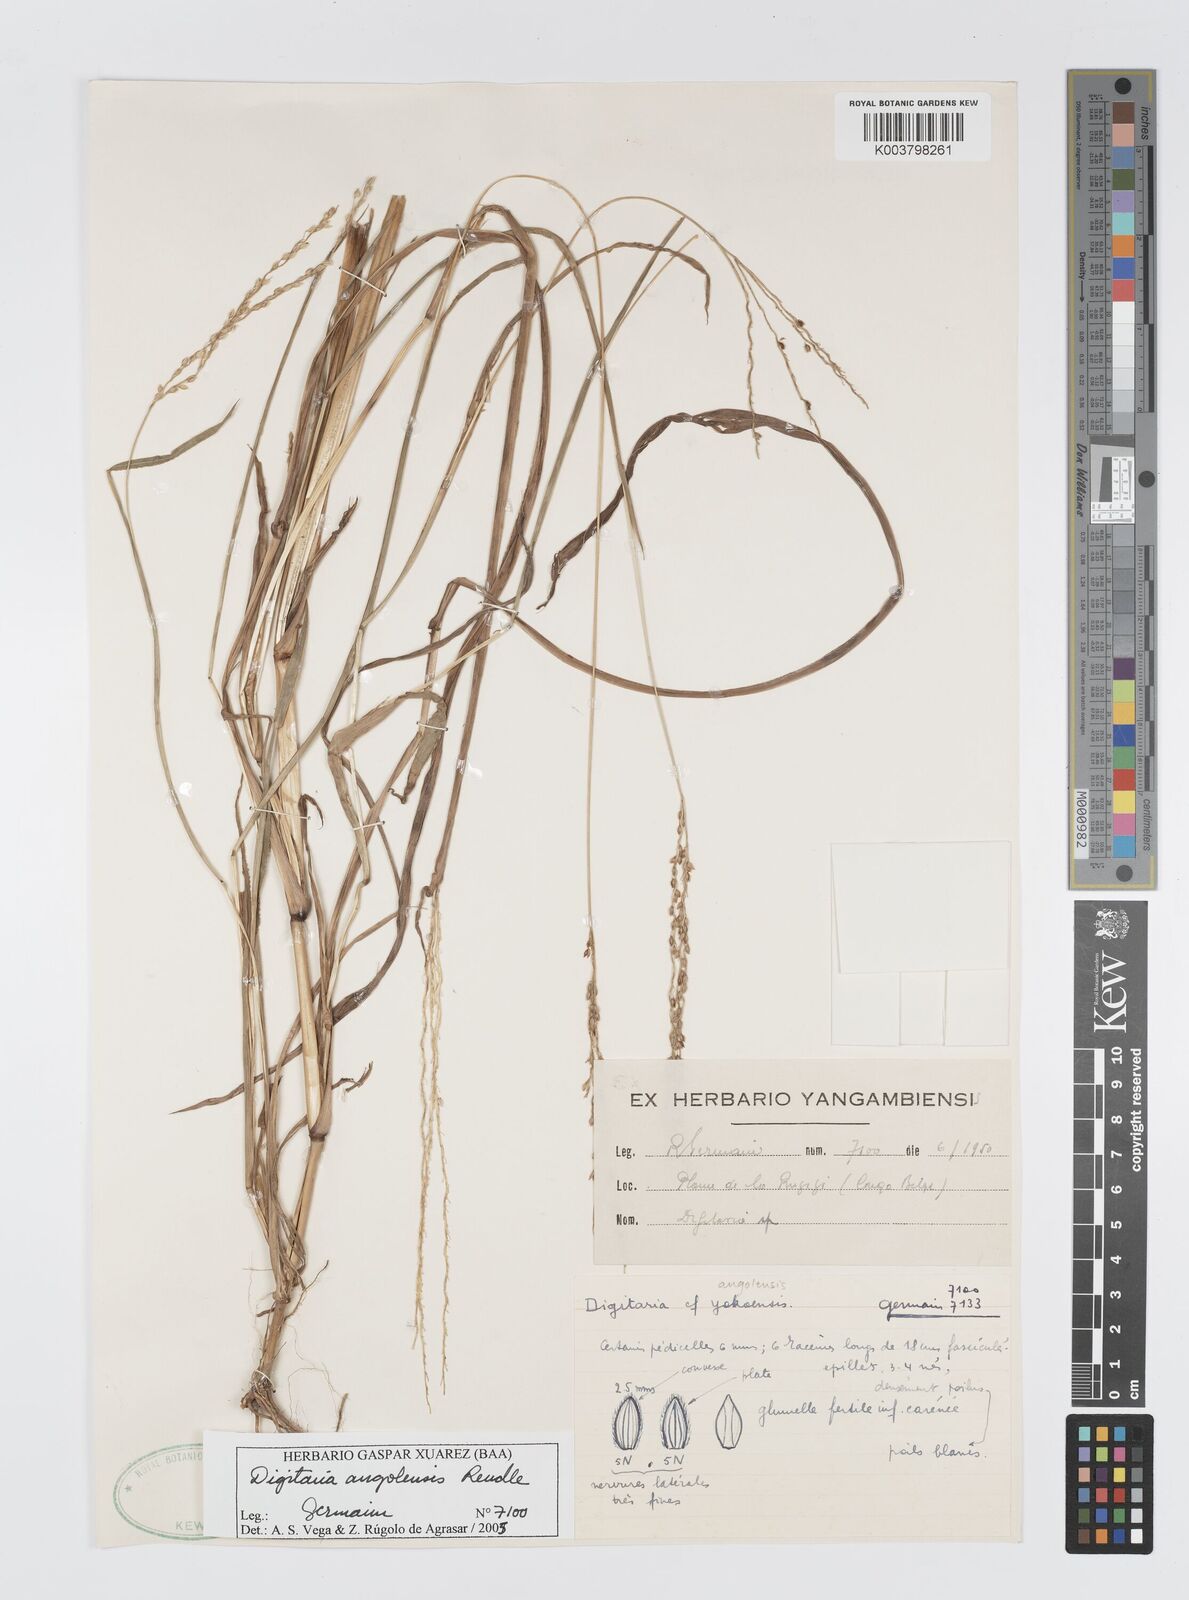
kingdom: Plantae
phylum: Tracheophyta
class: Liliopsida
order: Poales
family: Poaceae
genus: Digitaria
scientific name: Digitaria angolensis
